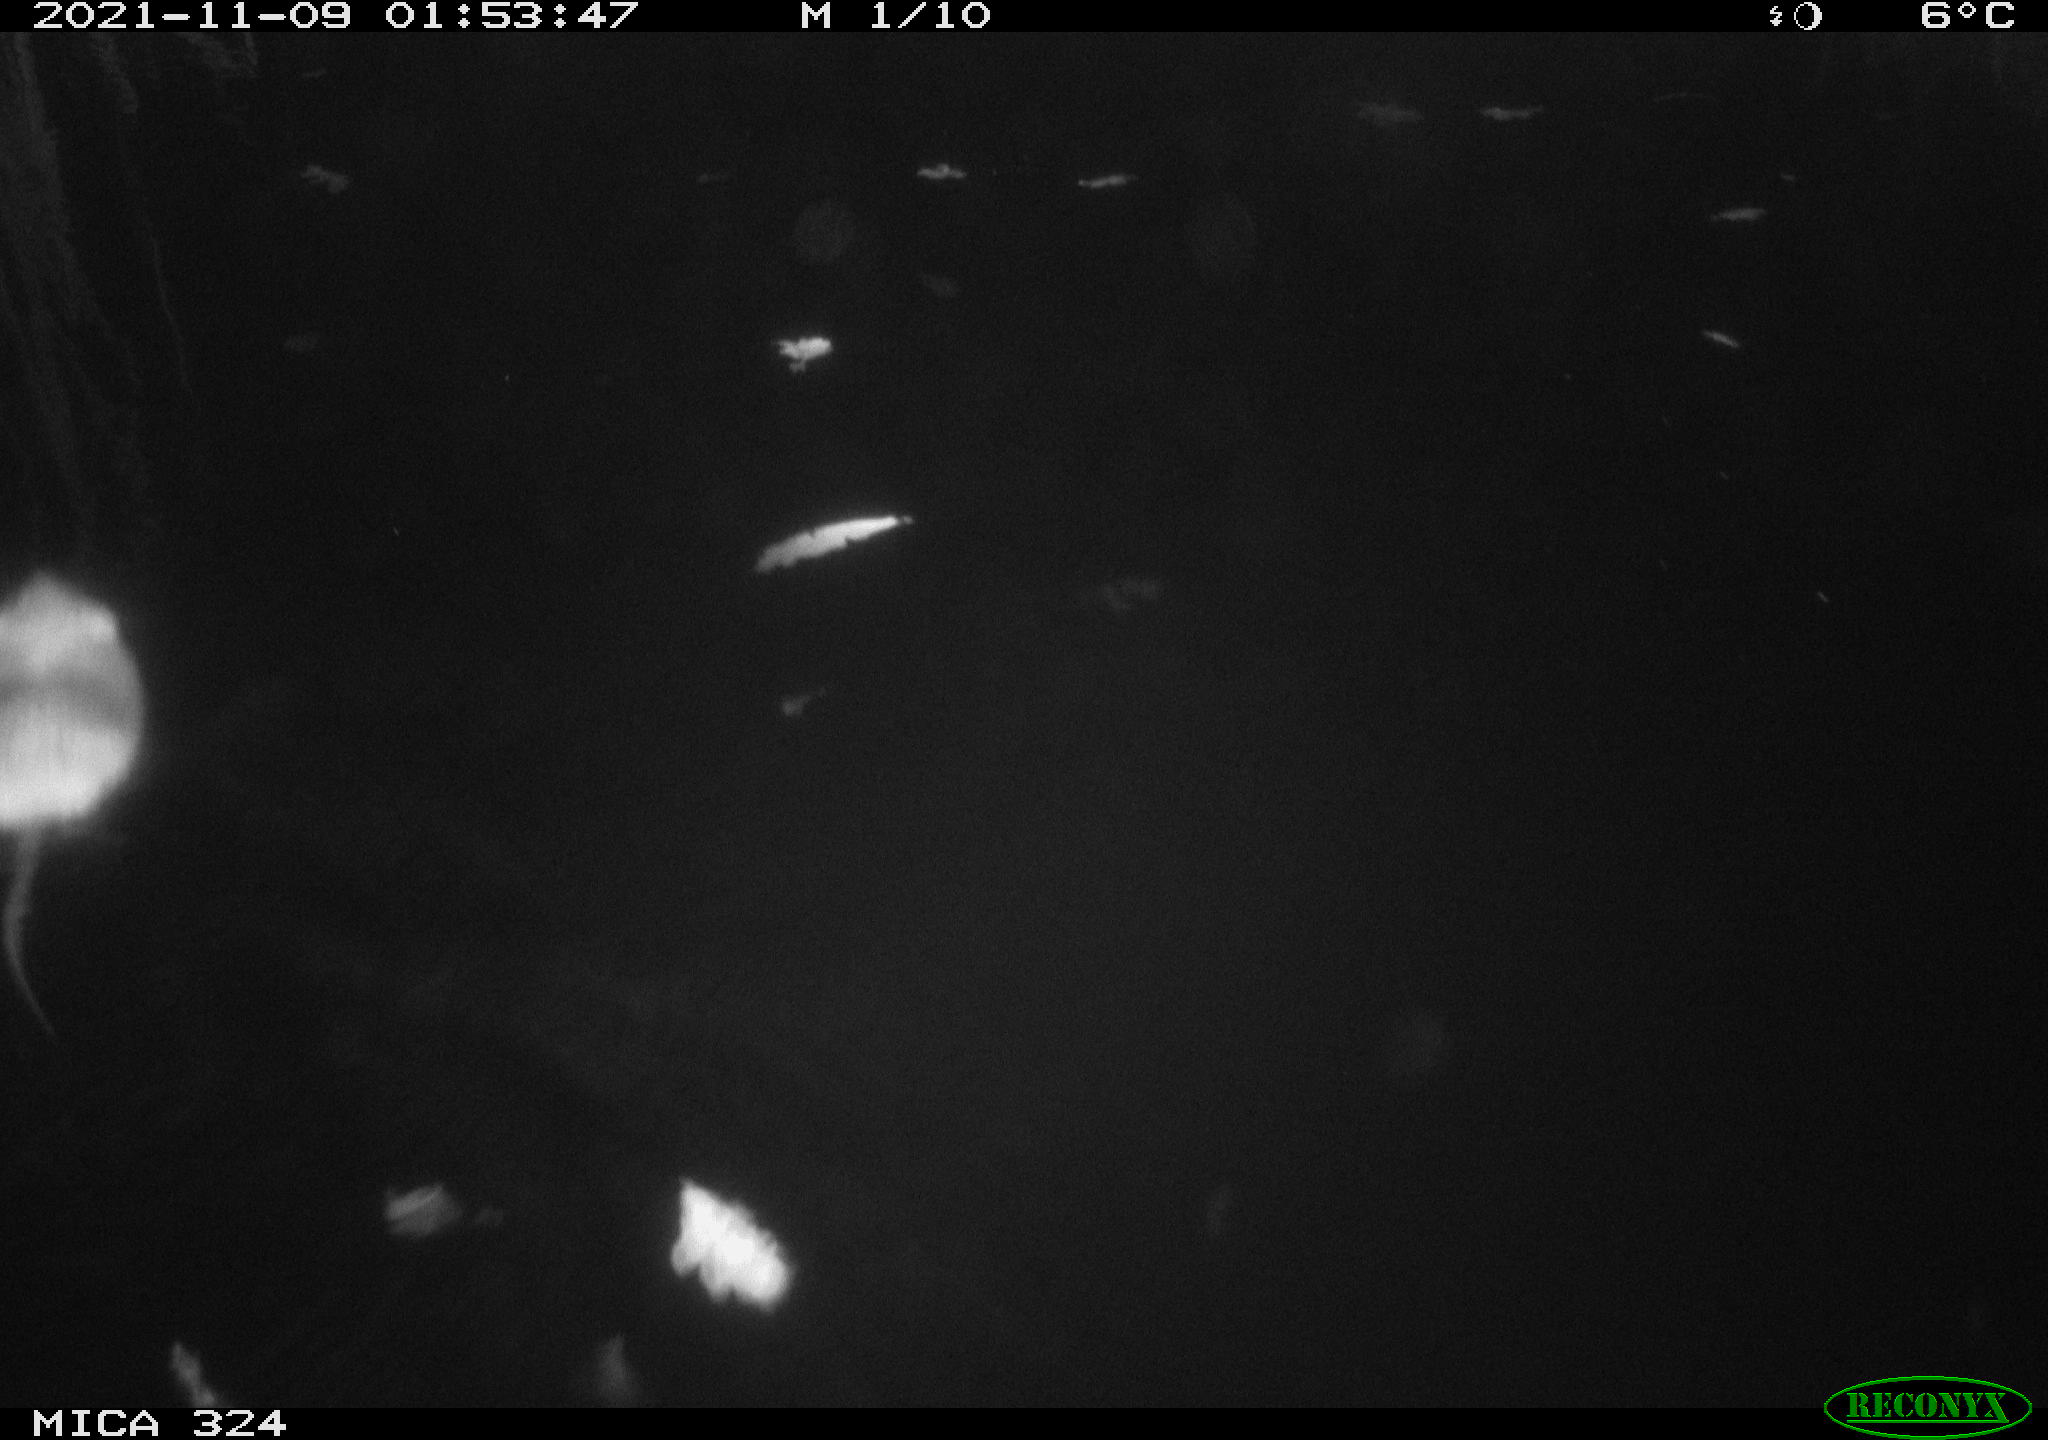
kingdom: Animalia
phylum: Chordata
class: Mammalia
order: Rodentia
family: Cricetidae
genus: Ondatra
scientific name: Ondatra zibethicus
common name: Muskrat
